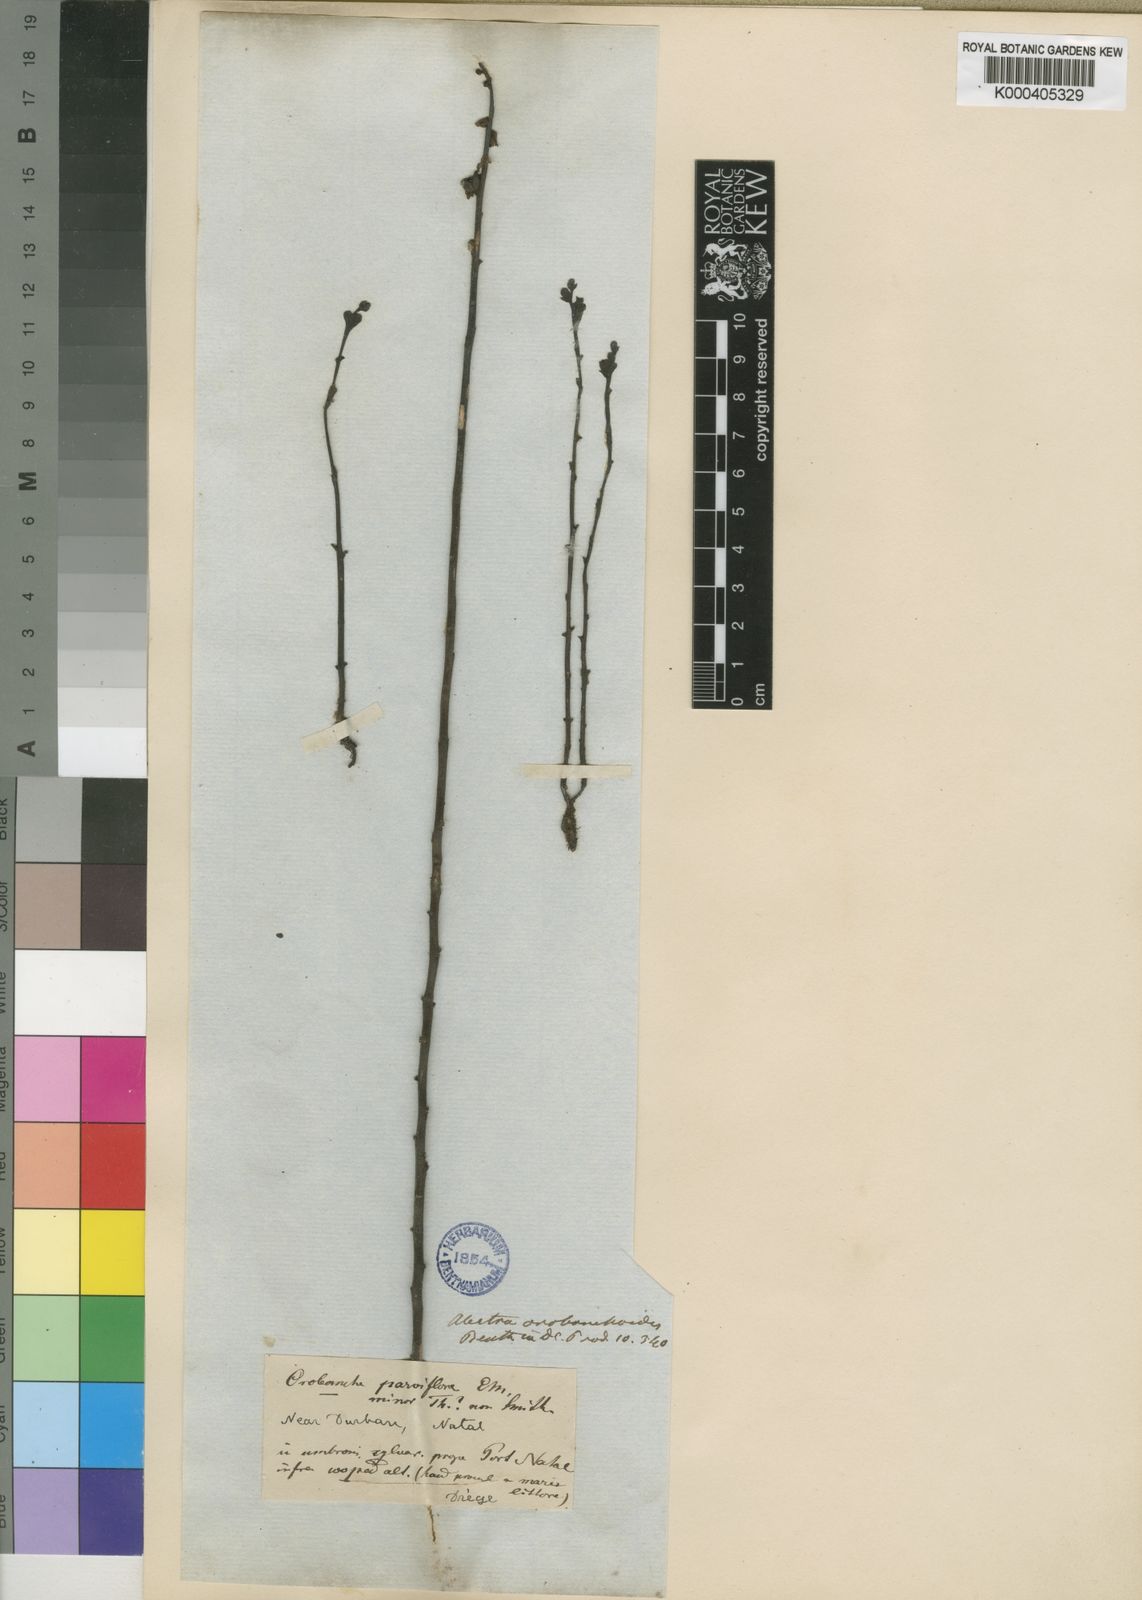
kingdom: Plantae
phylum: Tracheophyta
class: Magnoliopsida
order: Lamiales
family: Orobanchaceae
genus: Alectra
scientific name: Alectra orobanchoides
